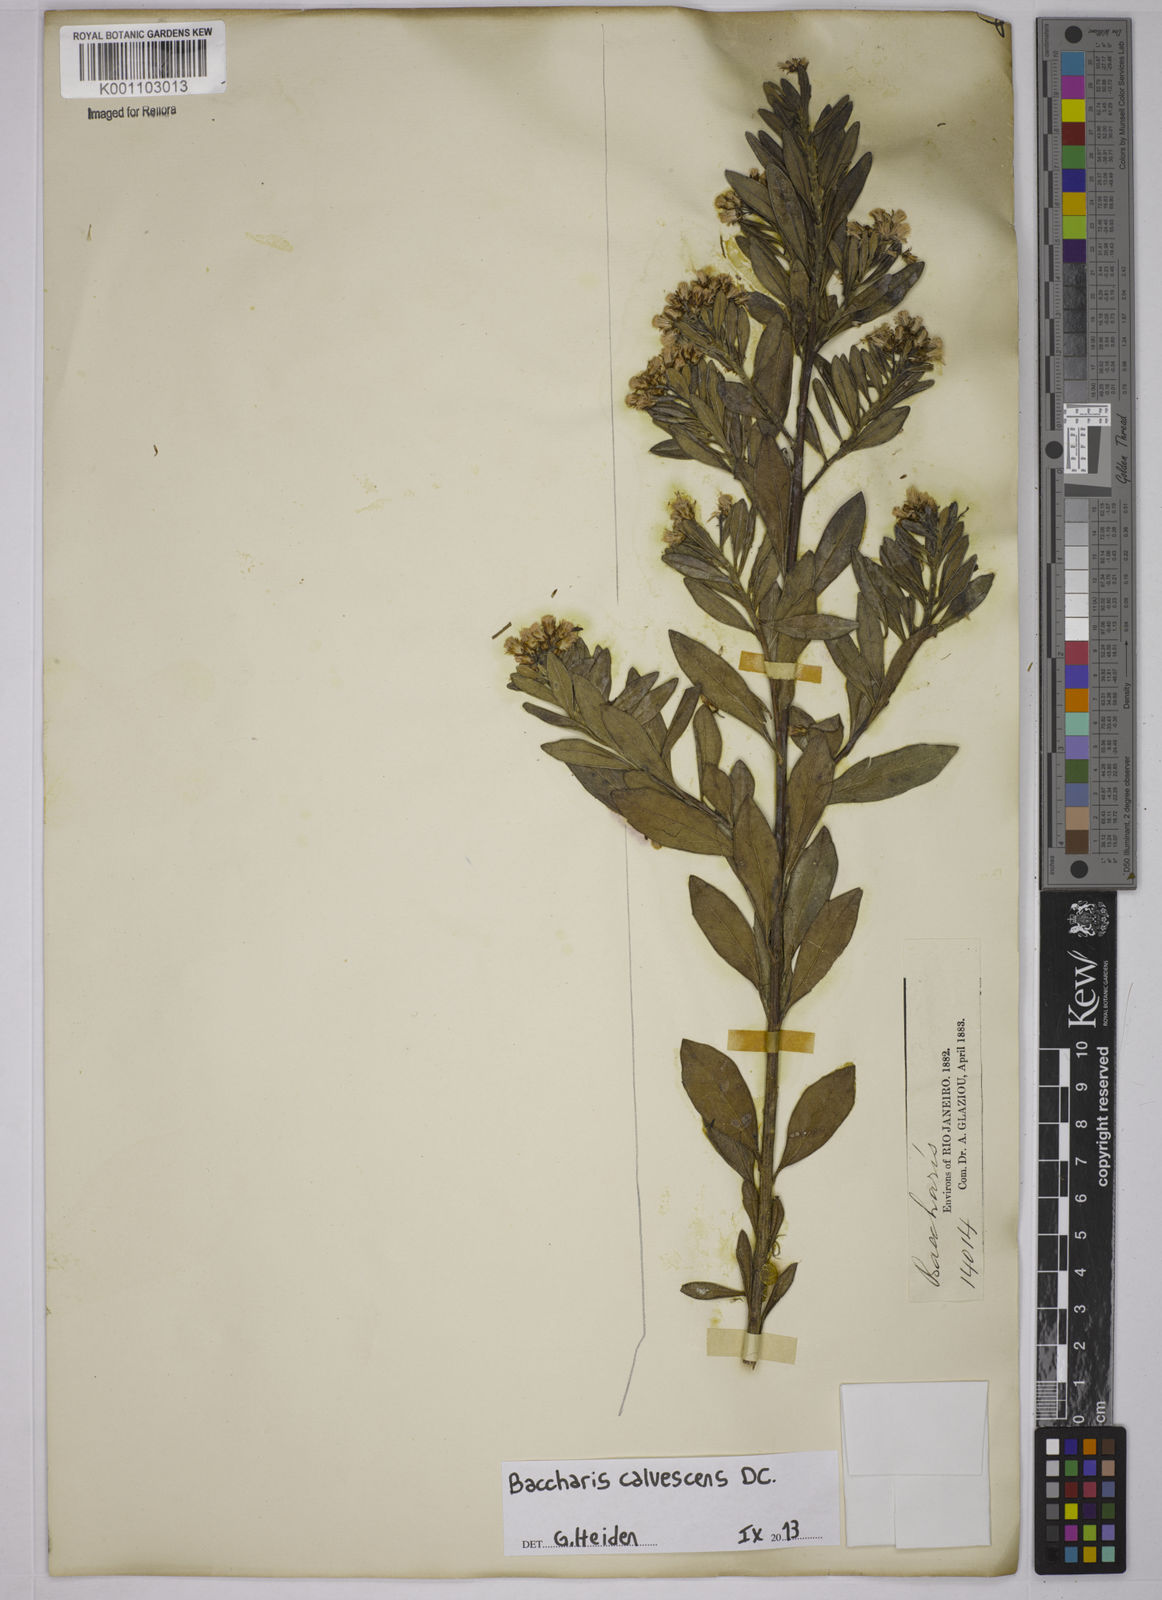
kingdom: Plantae
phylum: Tracheophyta
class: Magnoliopsida
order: Asterales
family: Asteraceae
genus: Baccharis
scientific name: Baccharis calvescens
